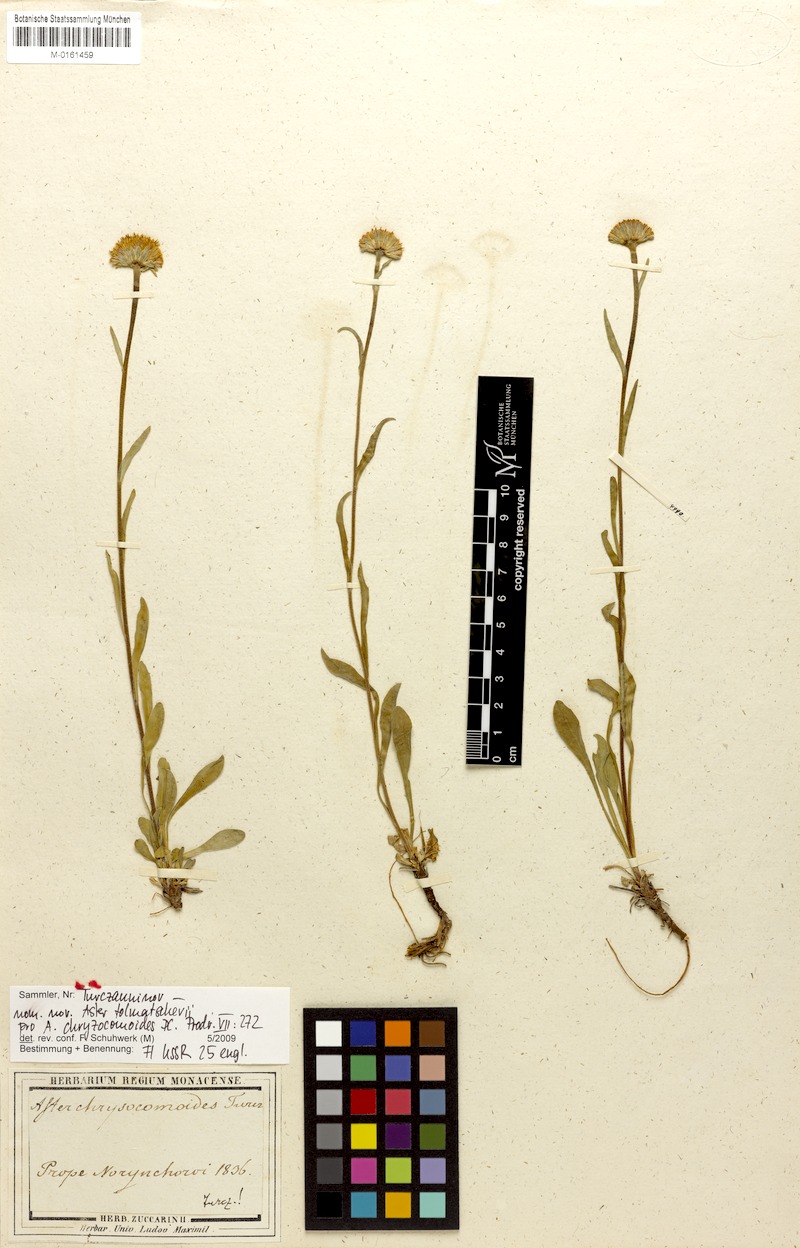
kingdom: Plantae
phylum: Tracheophyta
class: Magnoliopsida
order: Asterales
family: Asteraceae
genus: Aster
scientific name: Aster alpinus
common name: Alpine aster
